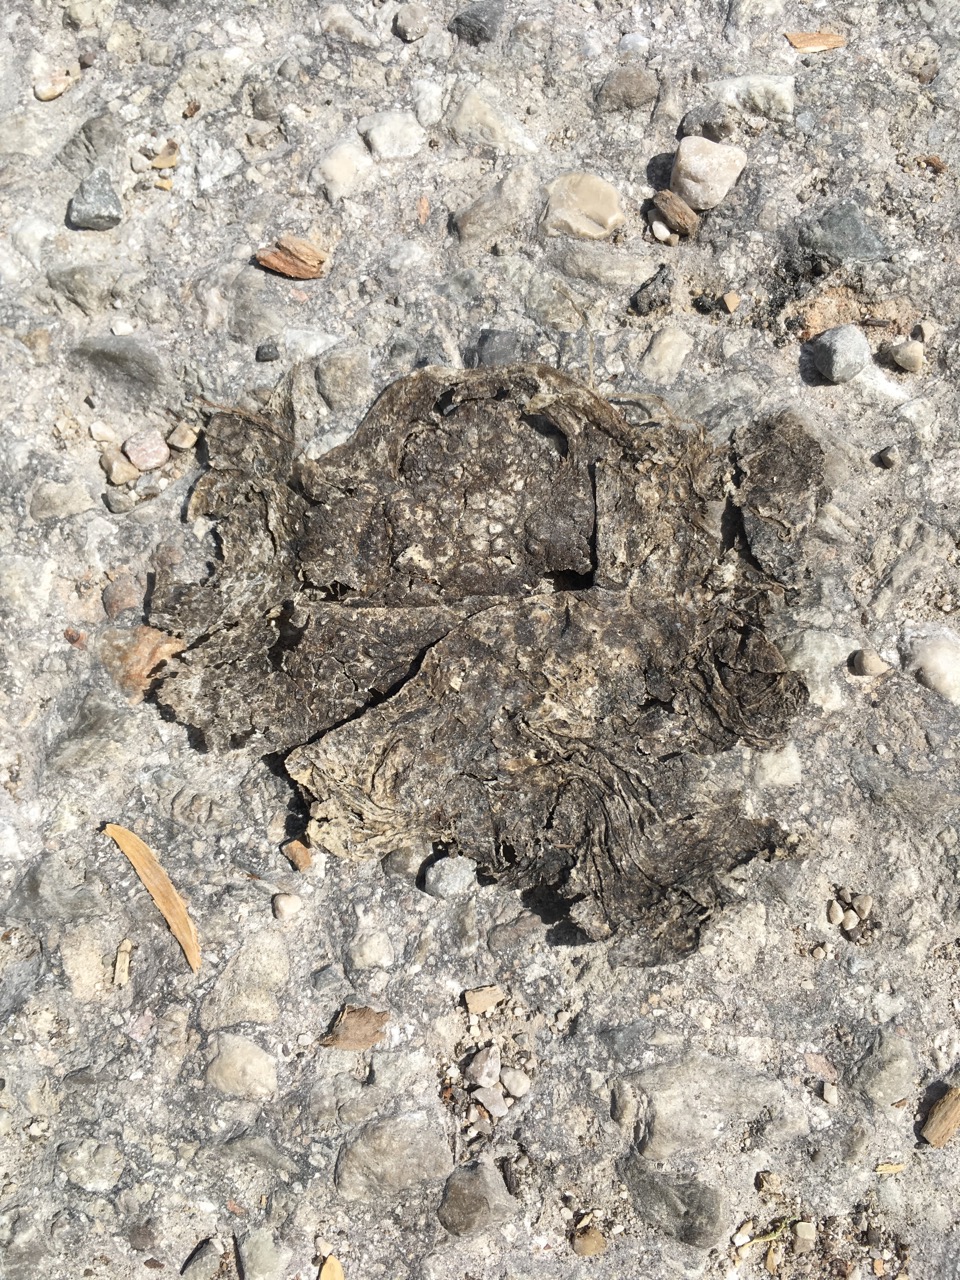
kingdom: Animalia
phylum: Chordata
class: Amphibia
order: Anura
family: Bufonidae
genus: Bufo
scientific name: Bufo bufo
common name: Common toad
